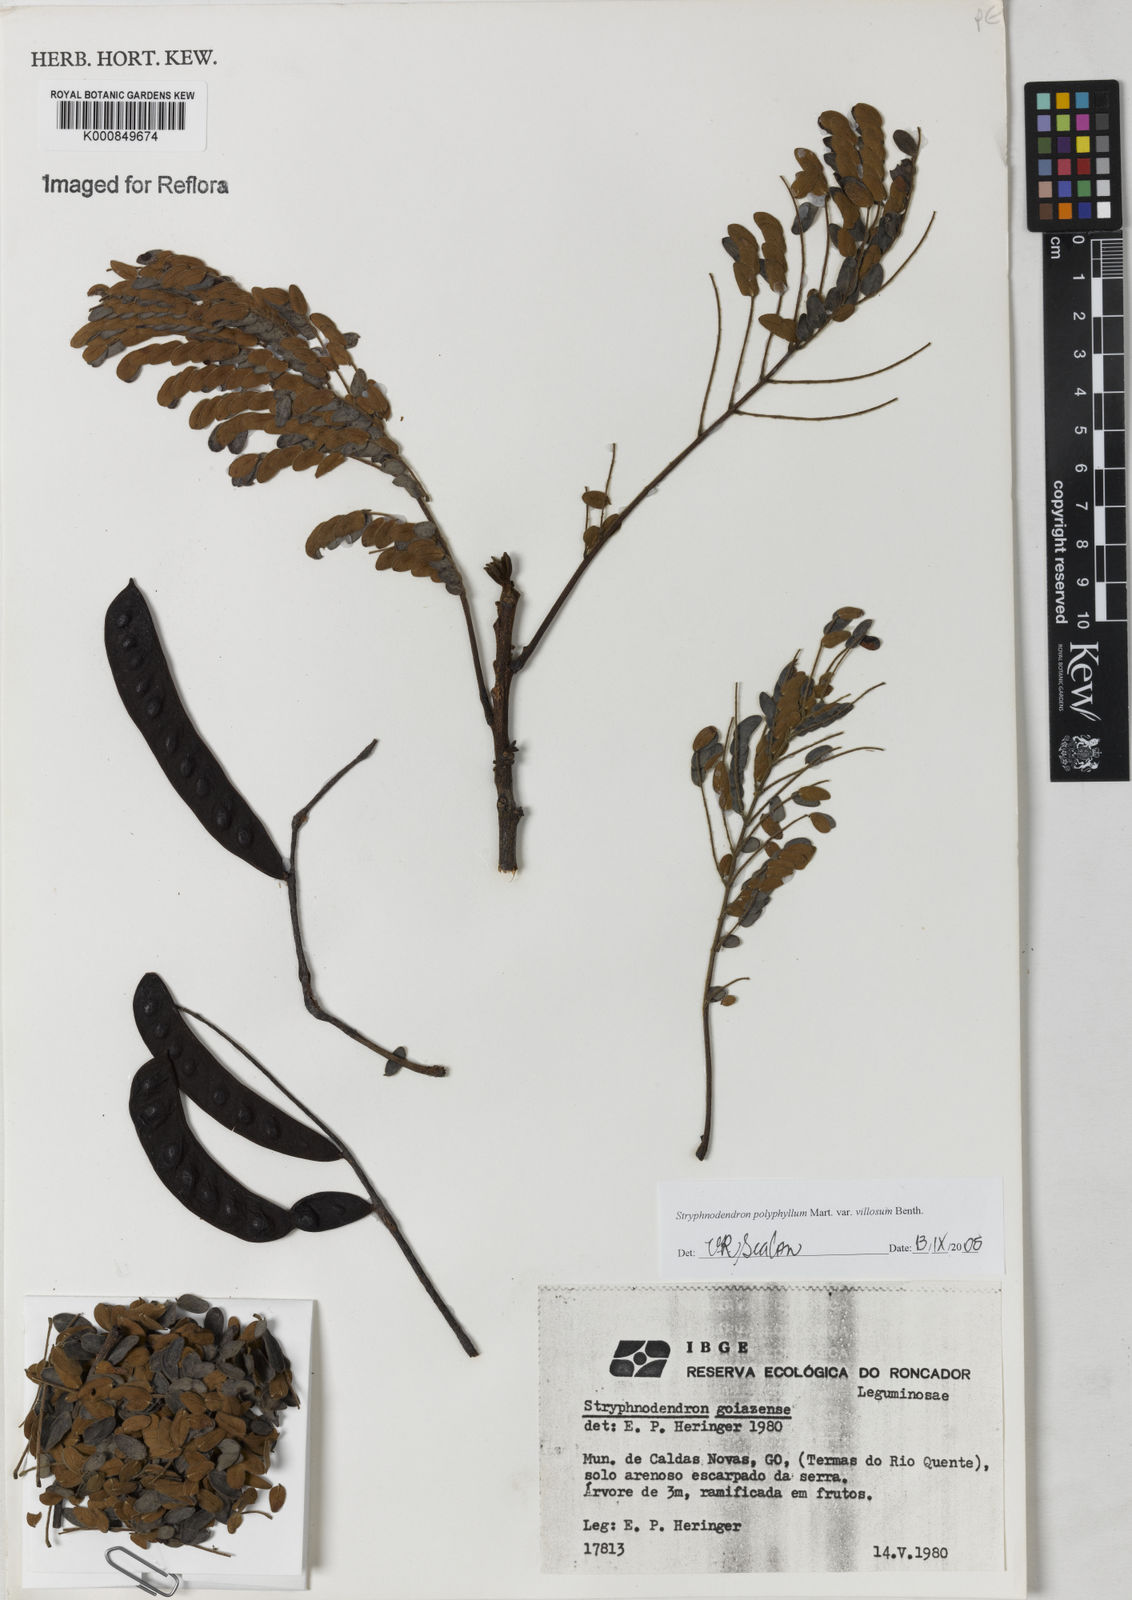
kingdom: Plantae
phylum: Tracheophyta
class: Magnoliopsida
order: Fabales
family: Fabaceae
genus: Stryphnodendron
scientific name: Stryphnodendron polyphyllum
